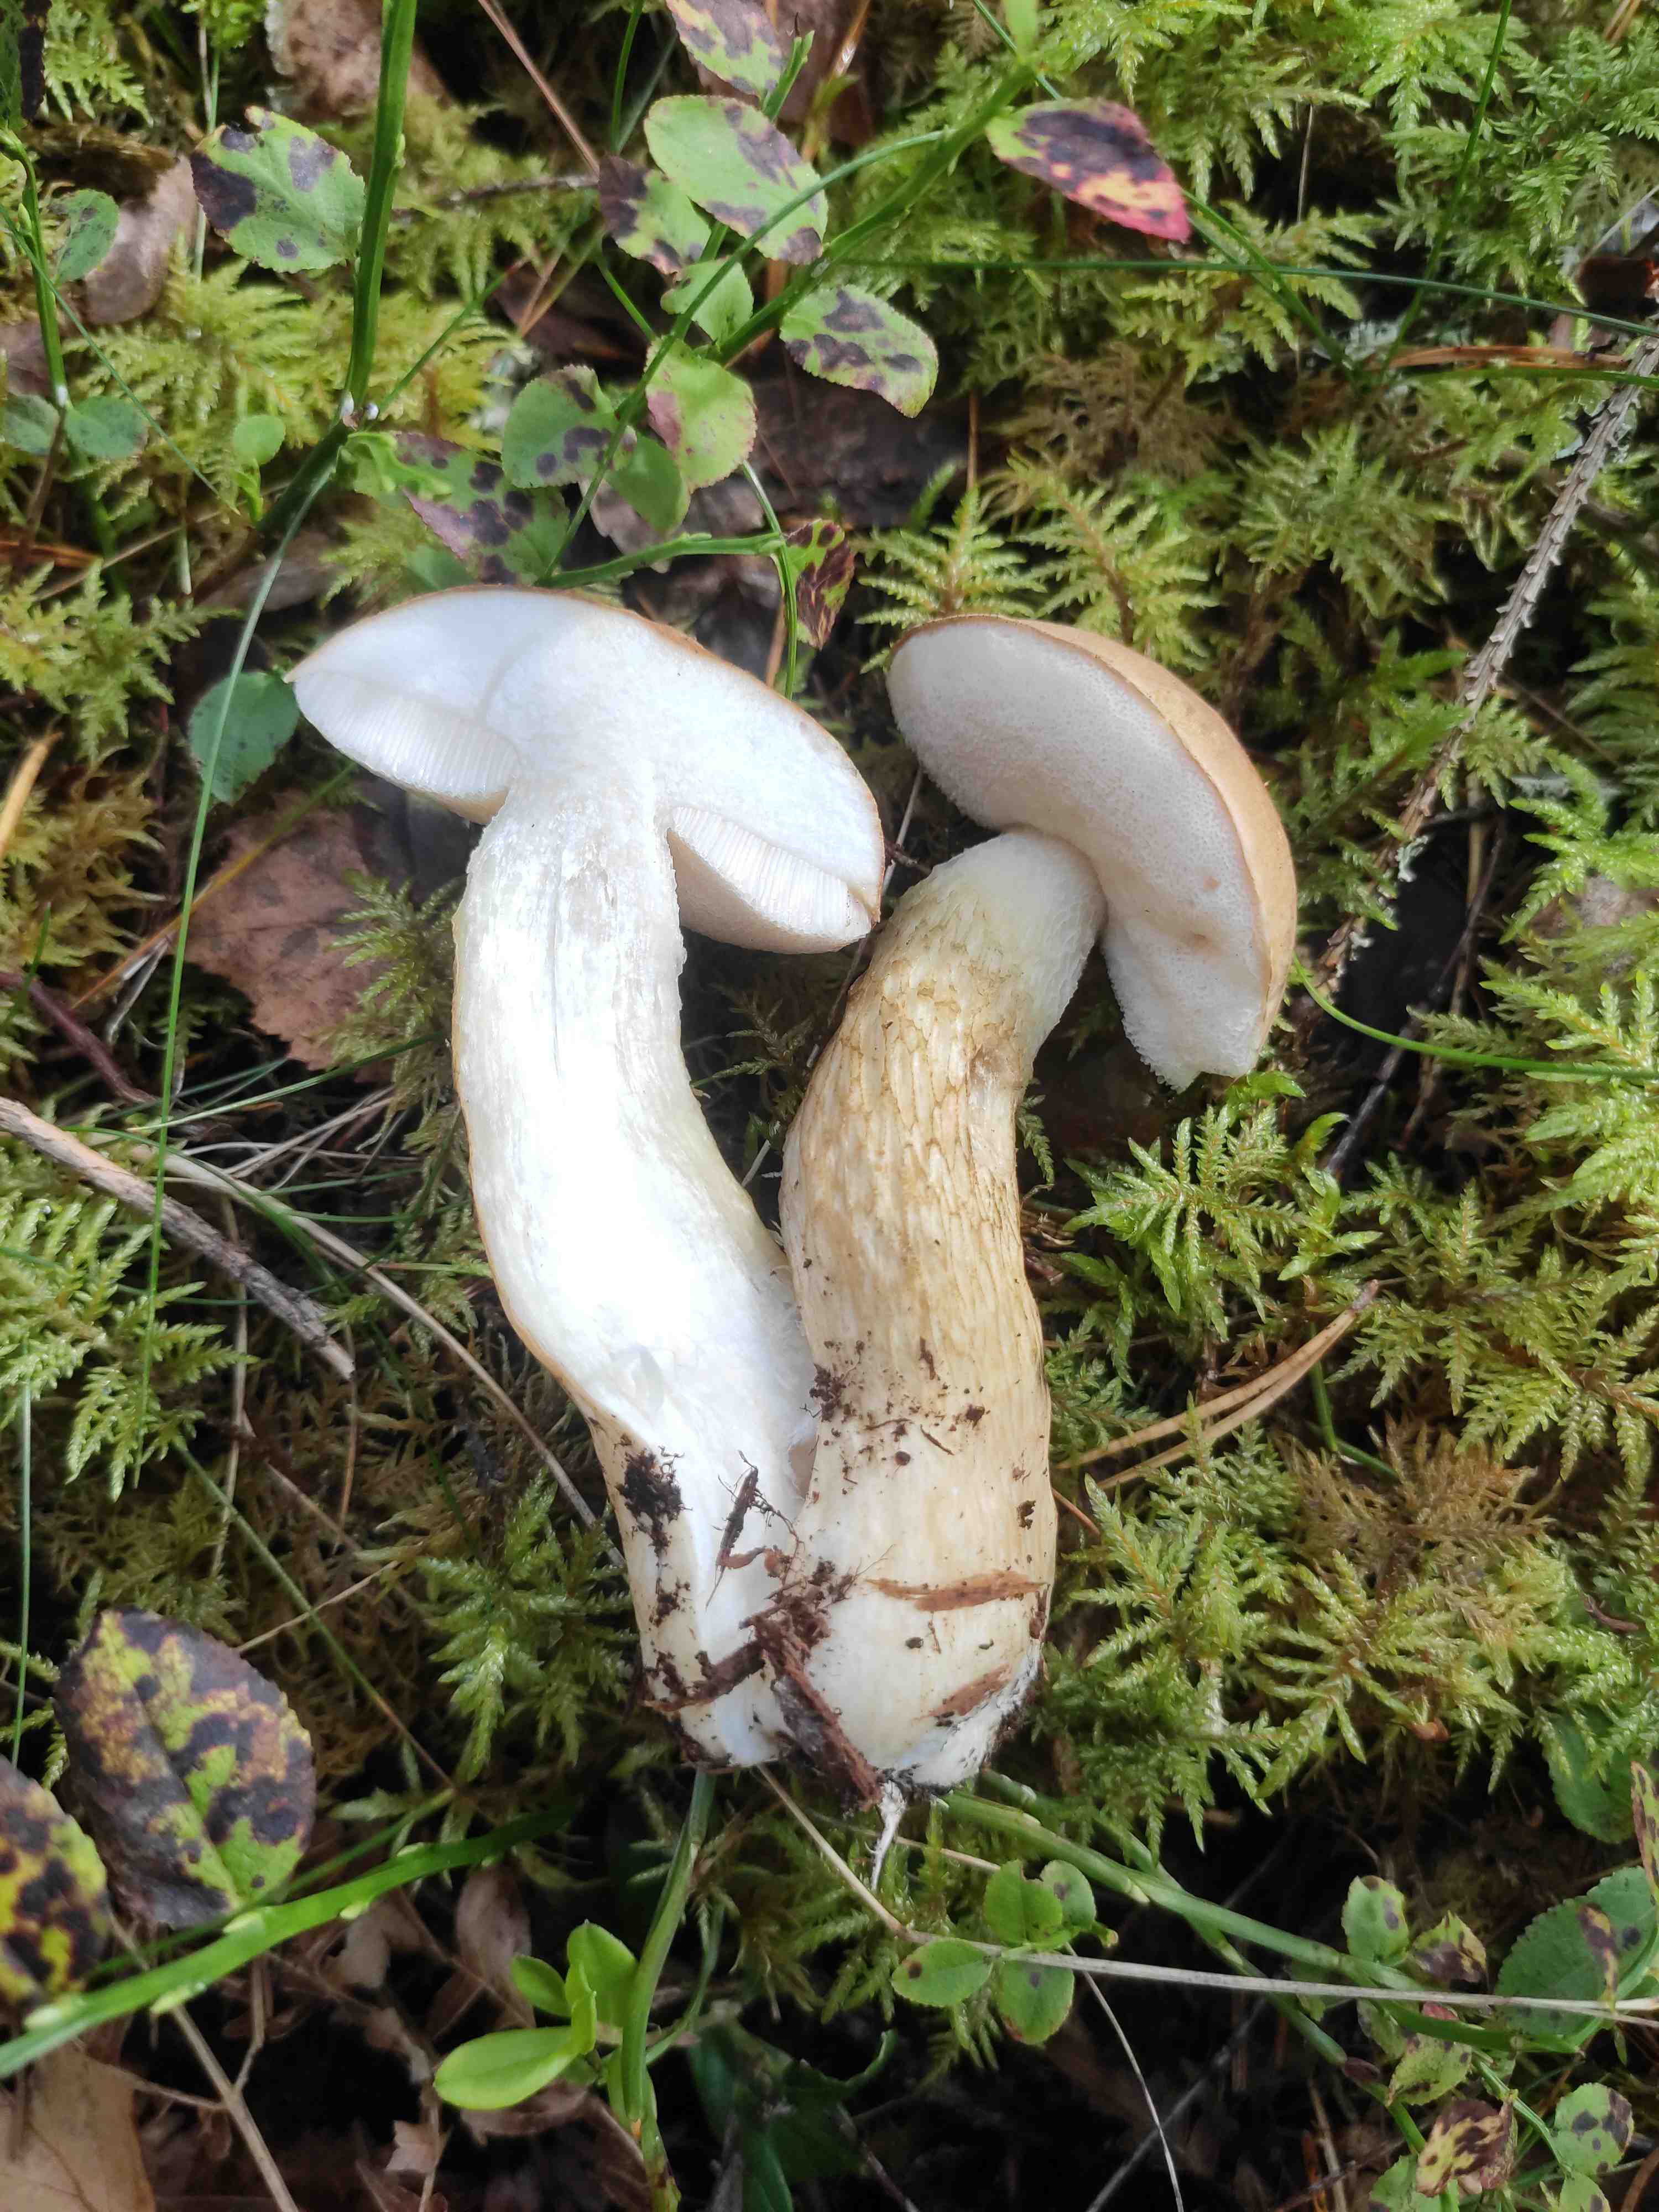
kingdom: Fungi
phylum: Basidiomycota
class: Agaricomycetes
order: Boletales
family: Boletaceae
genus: Tylopilus
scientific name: Tylopilus felleus
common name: galderørhat
